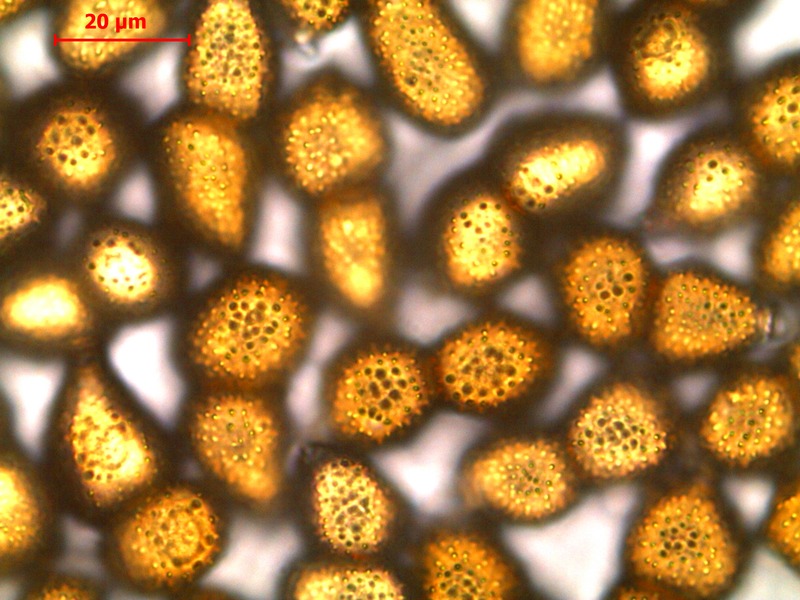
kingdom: Fungi
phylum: Basidiomycota
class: Pucciniomycetes
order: Pucciniales
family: Pucciniaceae
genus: Uromyces
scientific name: Uromyces veratri
